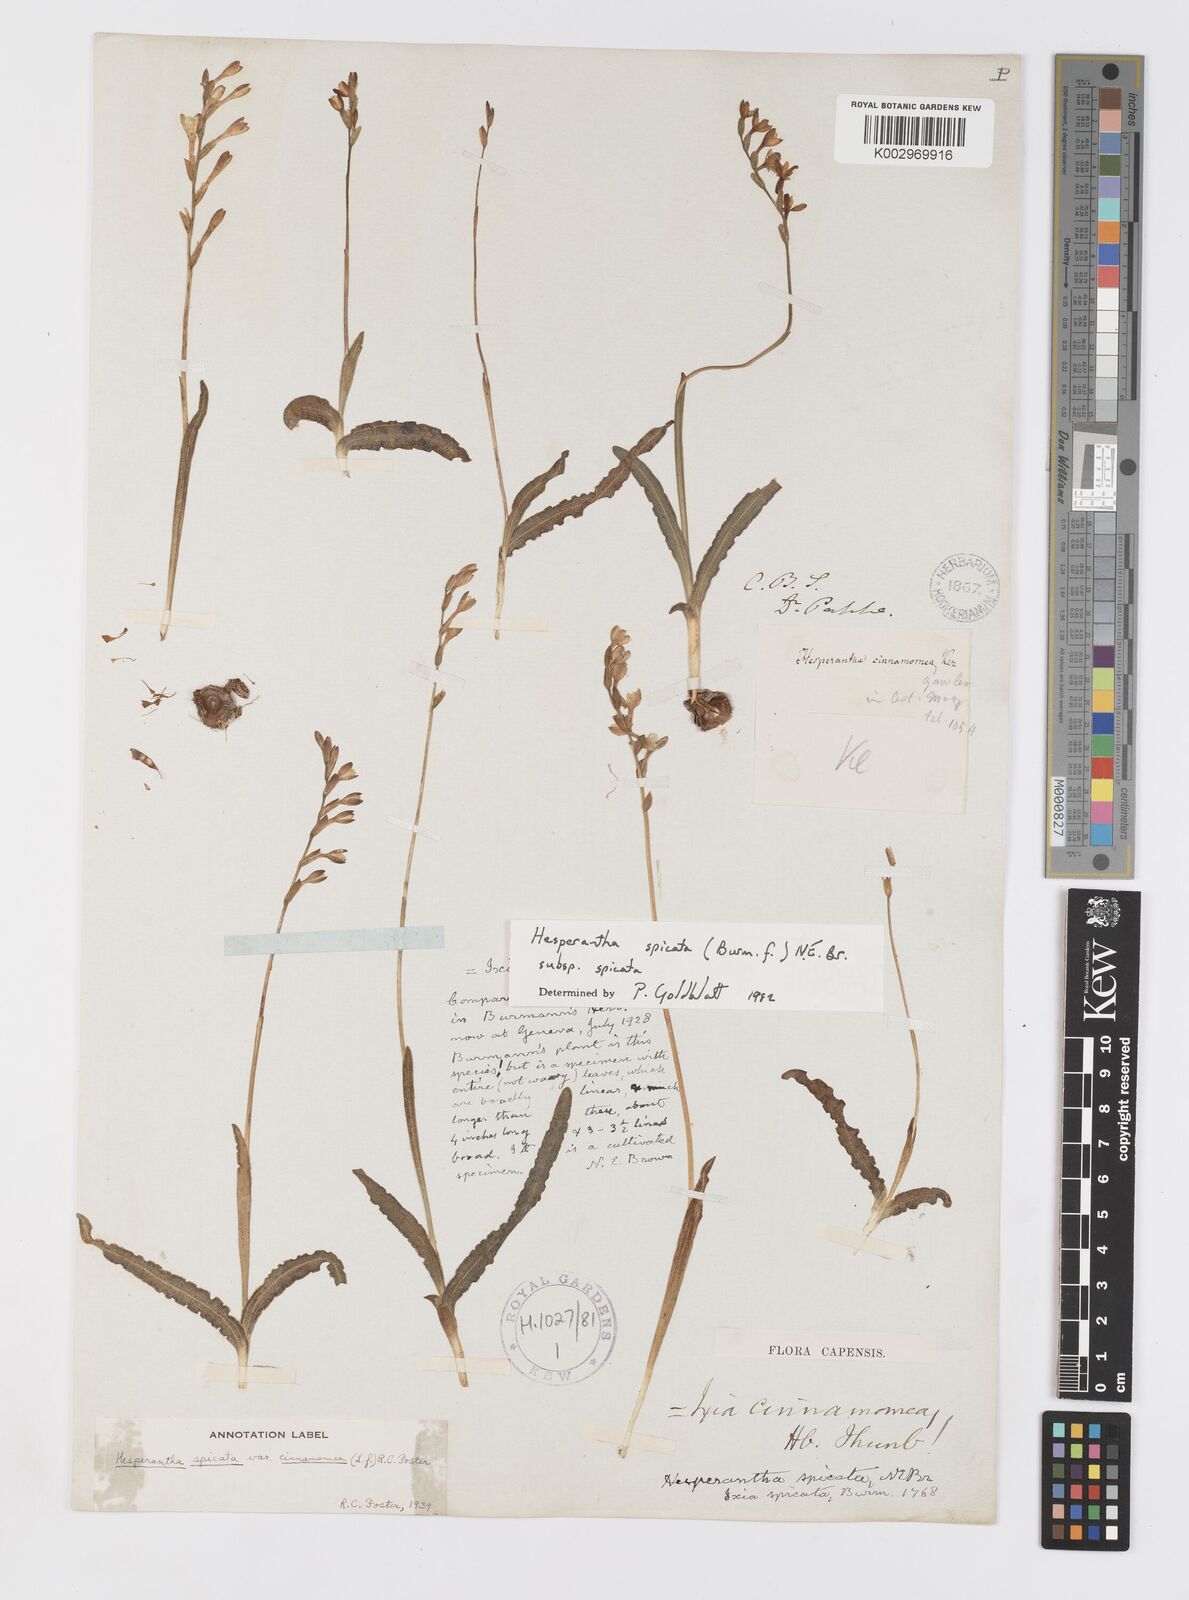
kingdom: Plantae
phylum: Tracheophyta
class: Liliopsida
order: Asparagales
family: Iridaceae
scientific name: Iridaceae
